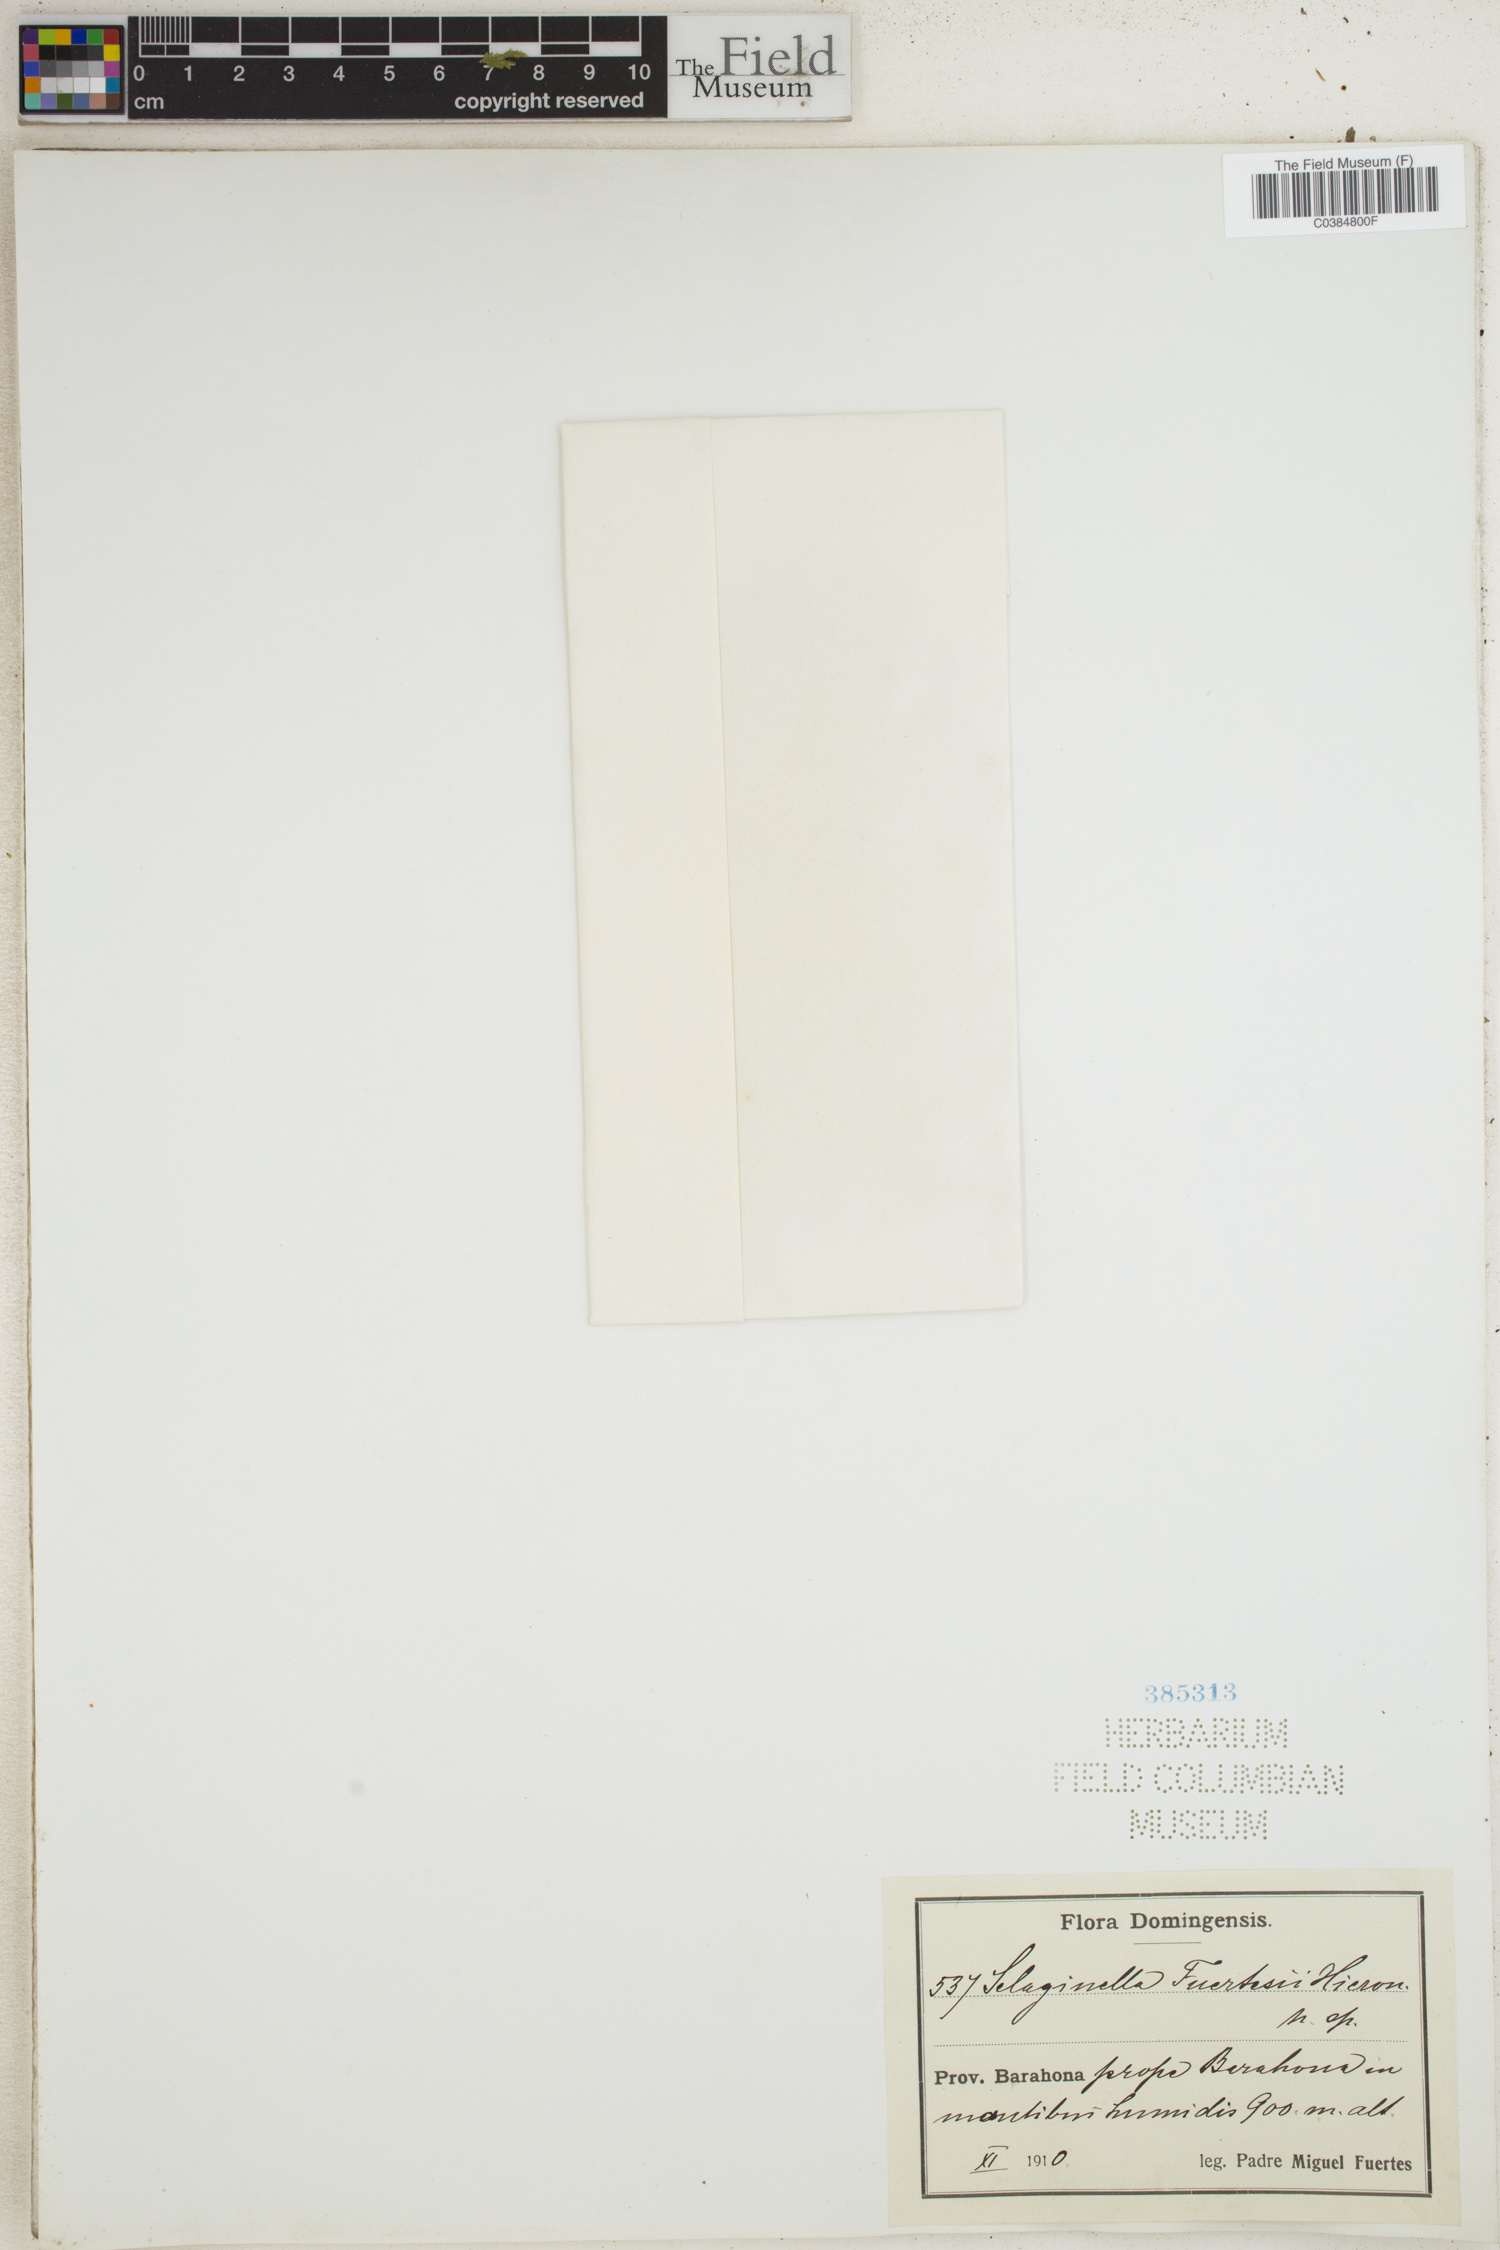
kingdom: Plantae
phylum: Tracheophyta
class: Lycopodiopsida
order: Selaginellales
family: Selaginellaceae
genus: Selaginella
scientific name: Selaginella fuertesii
